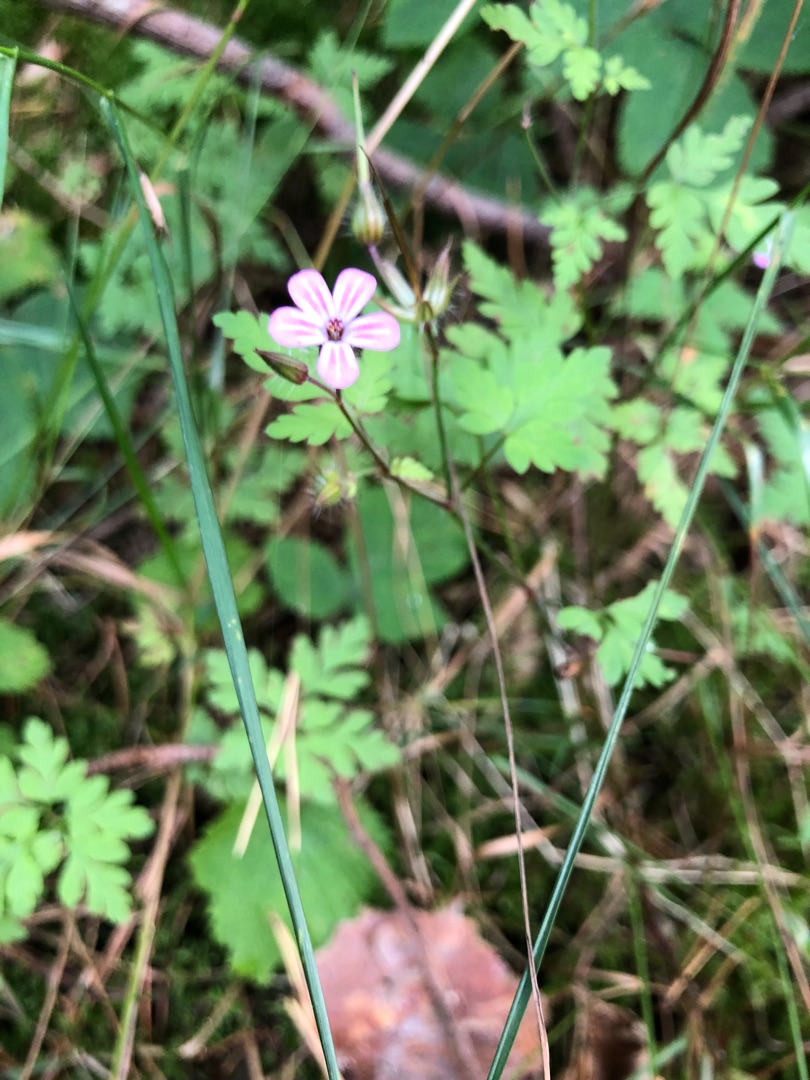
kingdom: Plantae
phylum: Tracheophyta
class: Magnoliopsida
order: Geraniales
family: Geraniaceae
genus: Geranium
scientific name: Geranium robertianum
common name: Stinkende storkenæb
